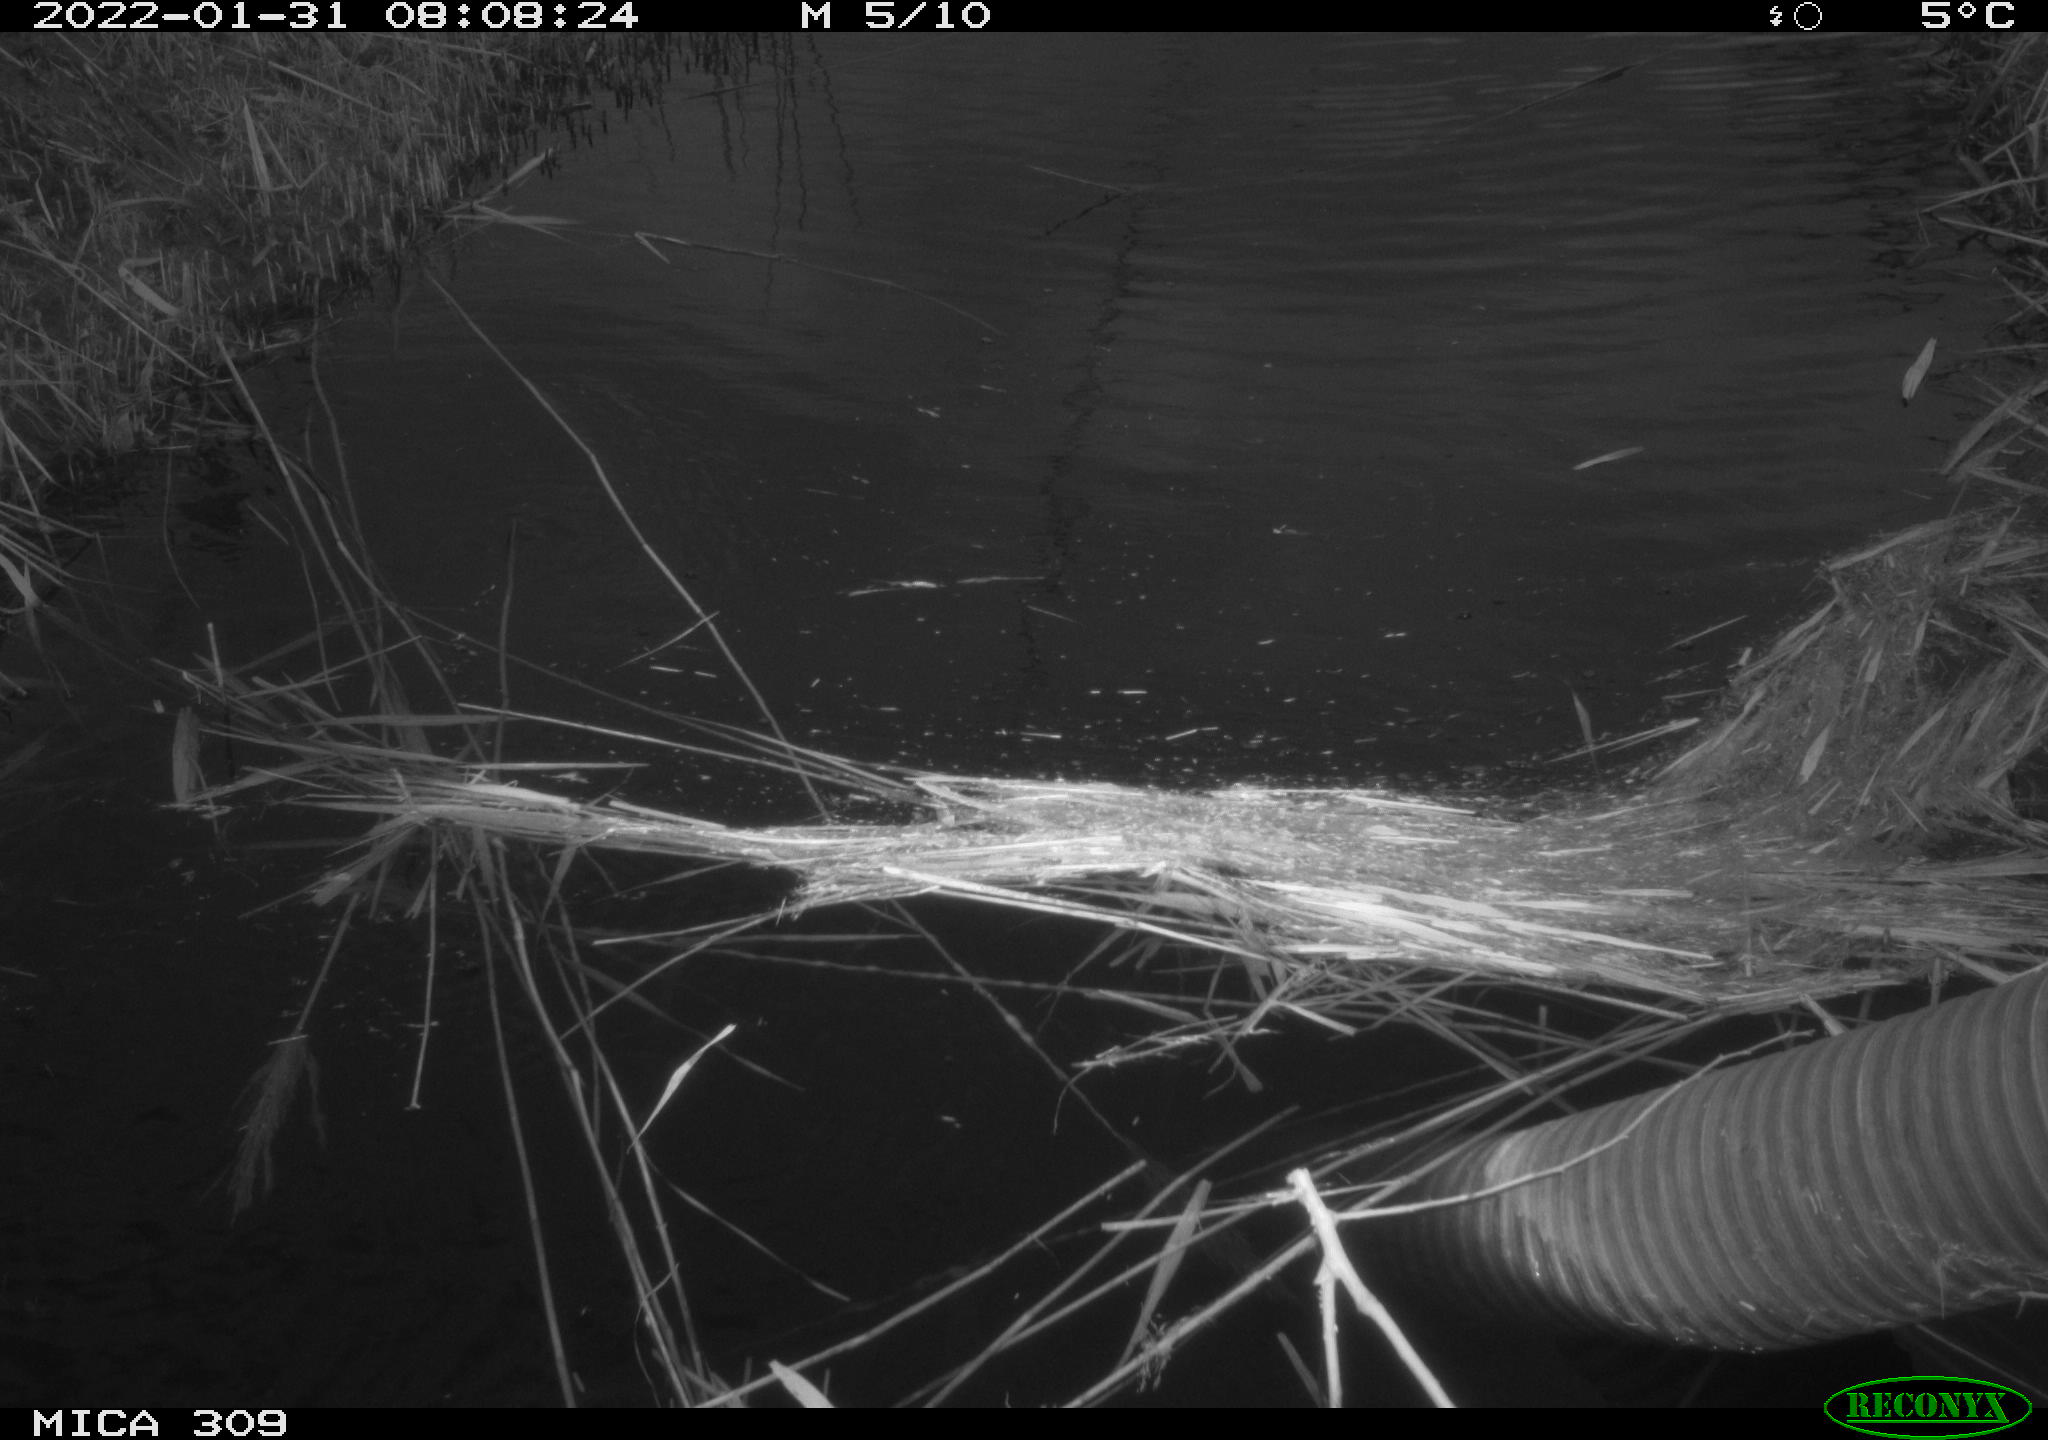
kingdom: Animalia
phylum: Chordata
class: Aves
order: Gruiformes
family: Rallidae
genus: Gallinula
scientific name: Gallinula chloropus
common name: Common moorhen
